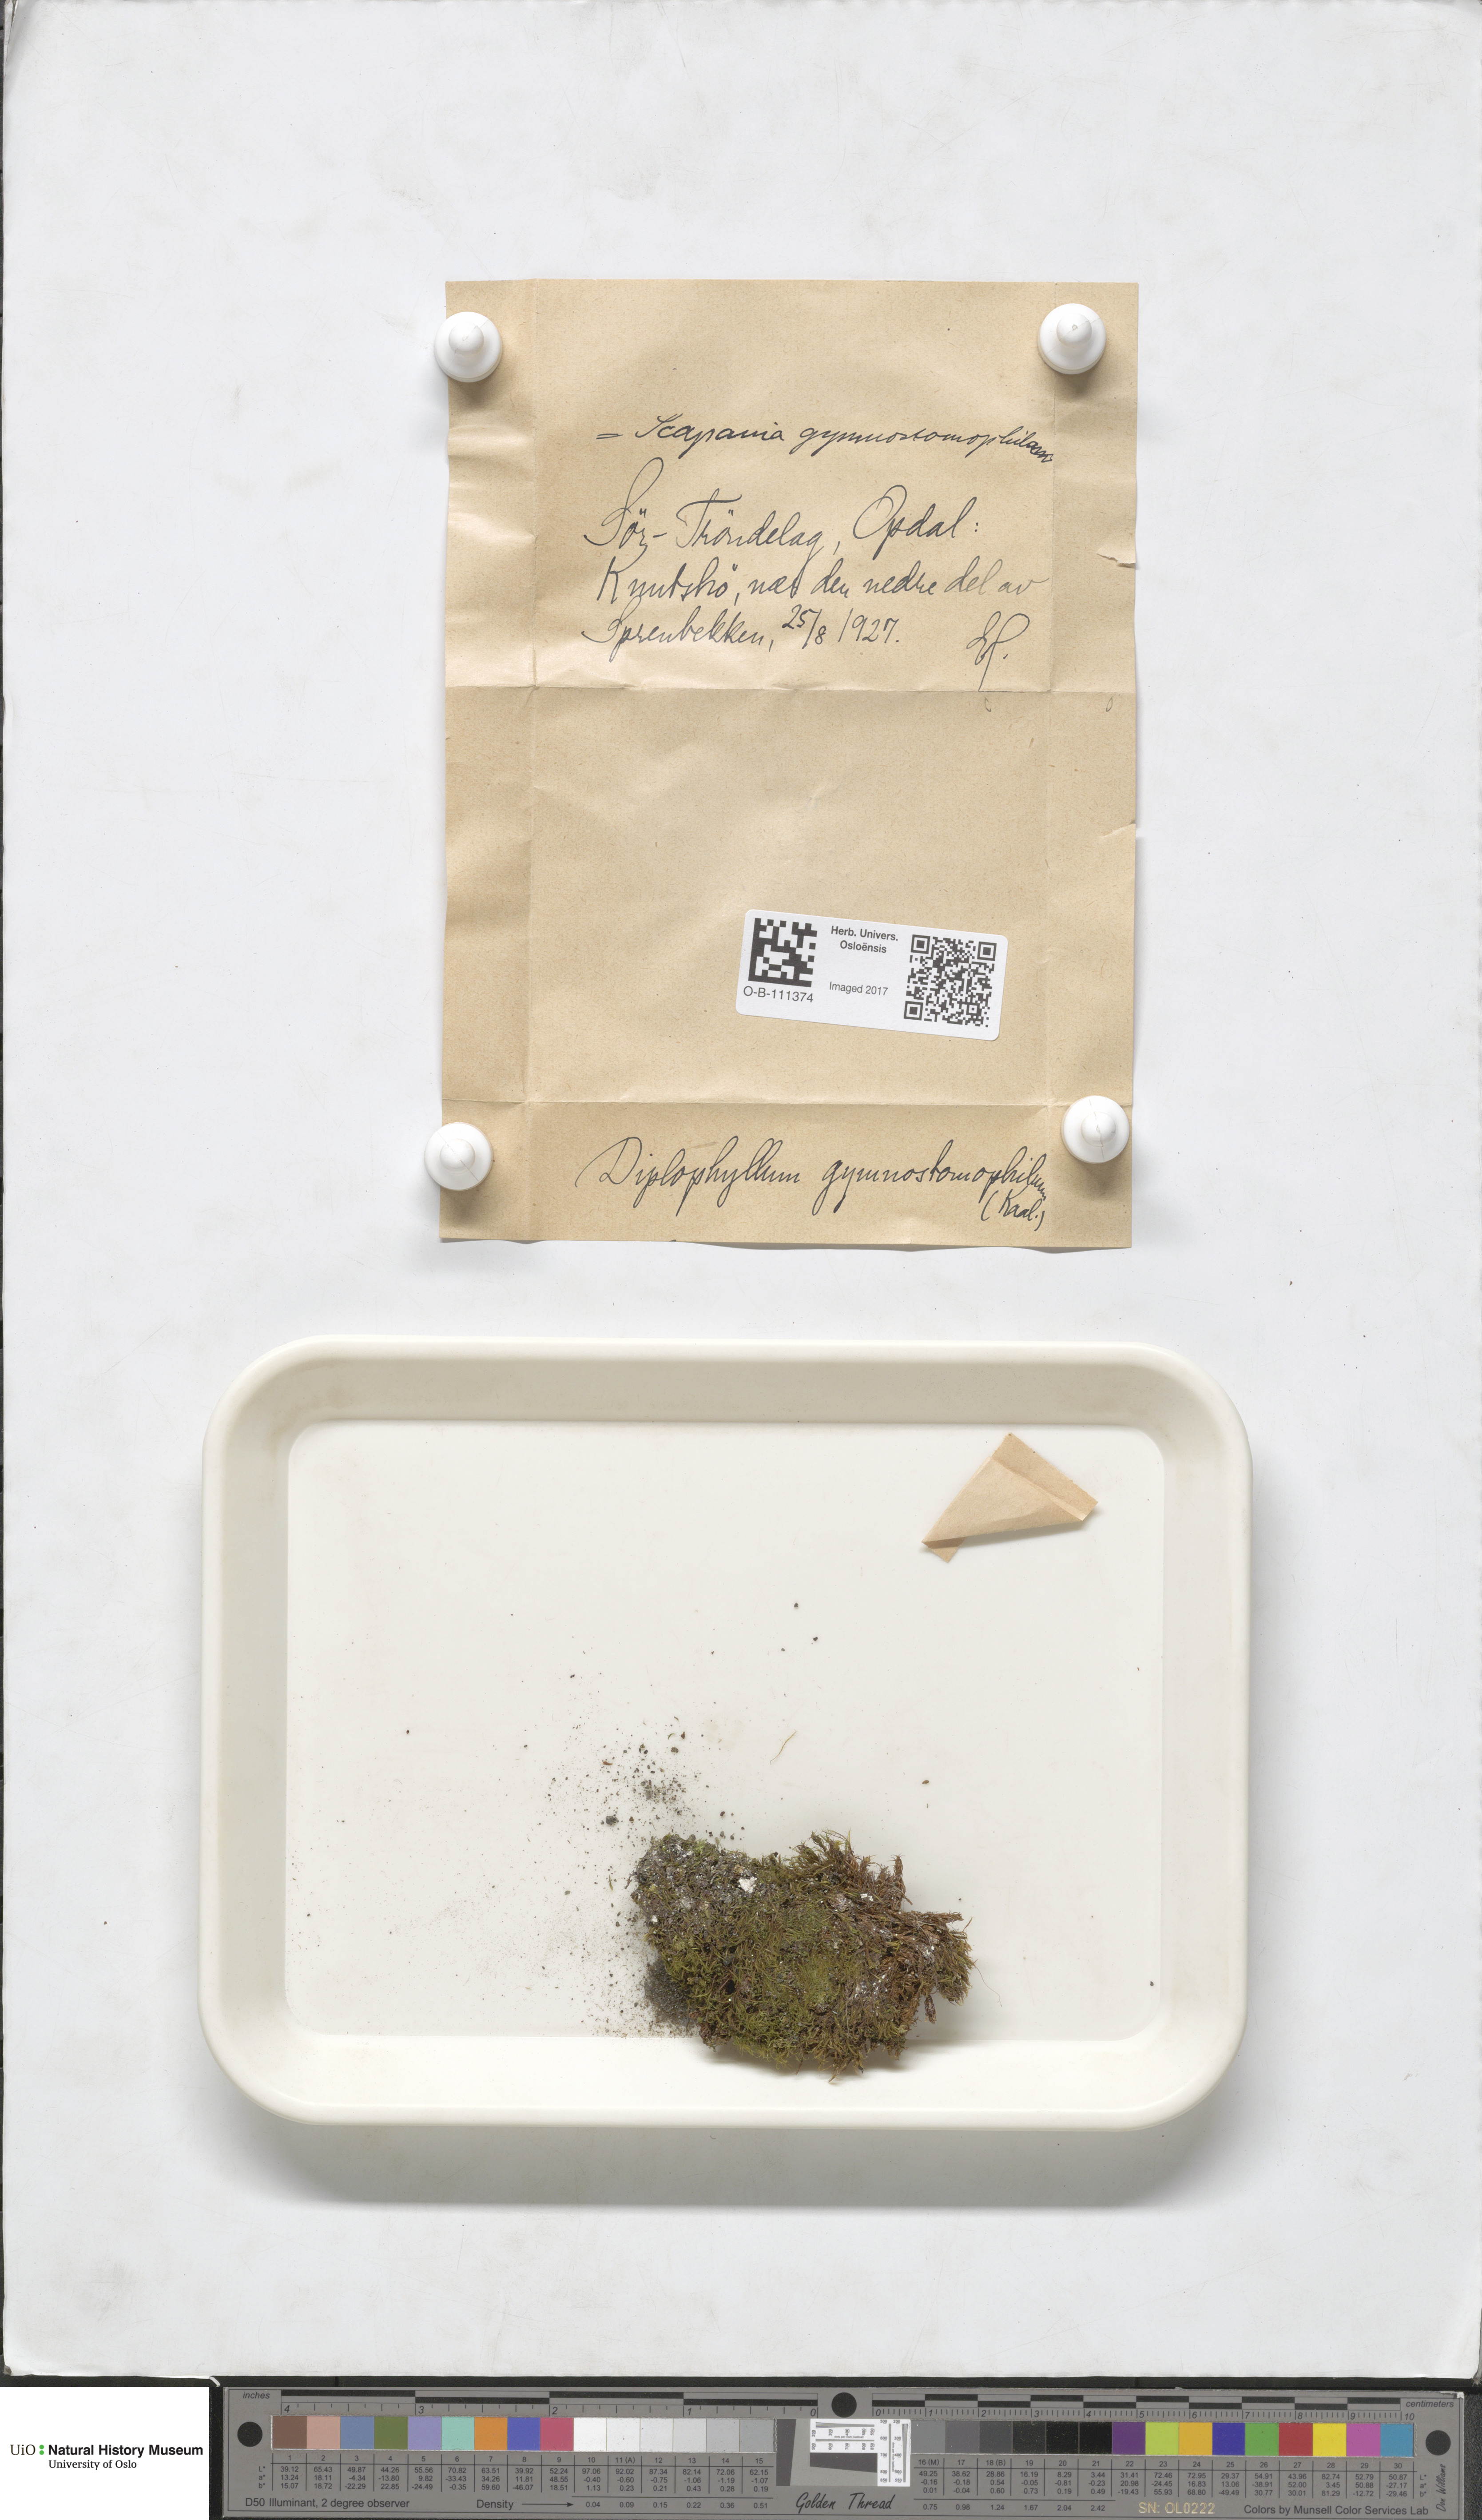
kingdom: Plantae
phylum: Marchantiophyta
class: Jungermanniopsida
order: Jungermanniales
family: Scapaniaceae
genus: Scapania
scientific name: Scapania gymnostomophila
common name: Narrow-lobed earwort
